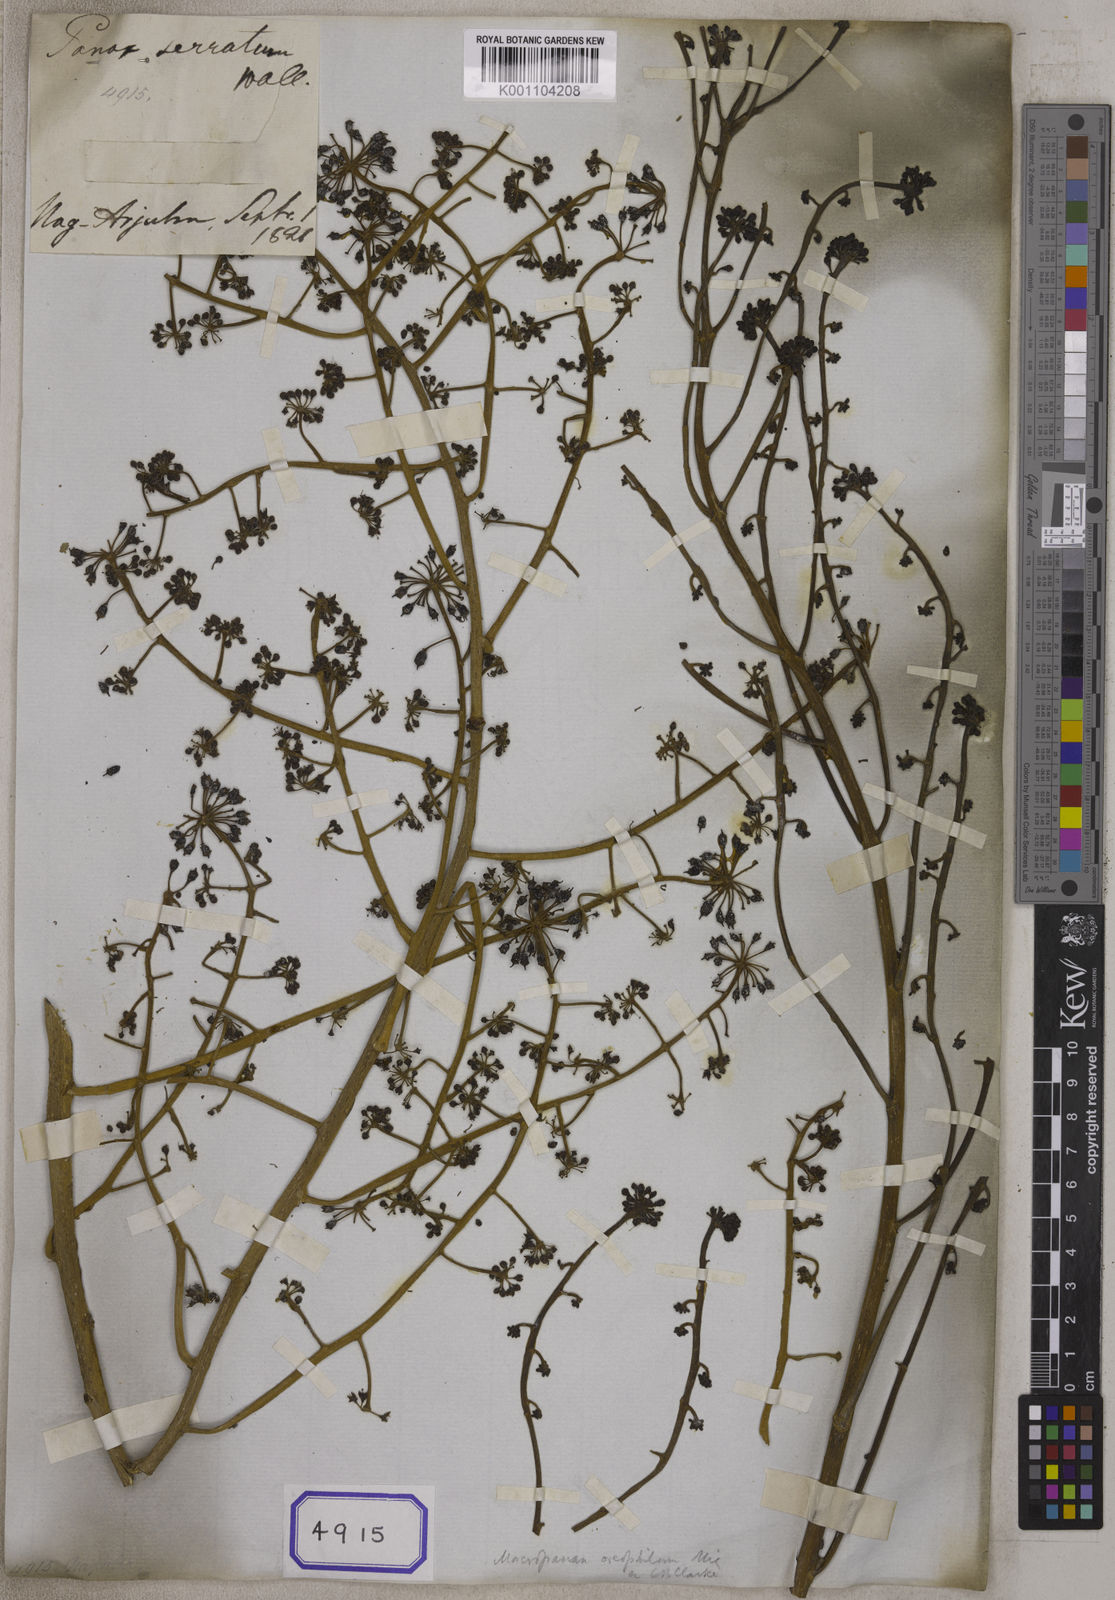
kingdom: Plantae
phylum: Tracheophyta
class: Magnoliopsida
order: Apiales
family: Araliaceae
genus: Macropanax
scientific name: Macropanax dispermus
